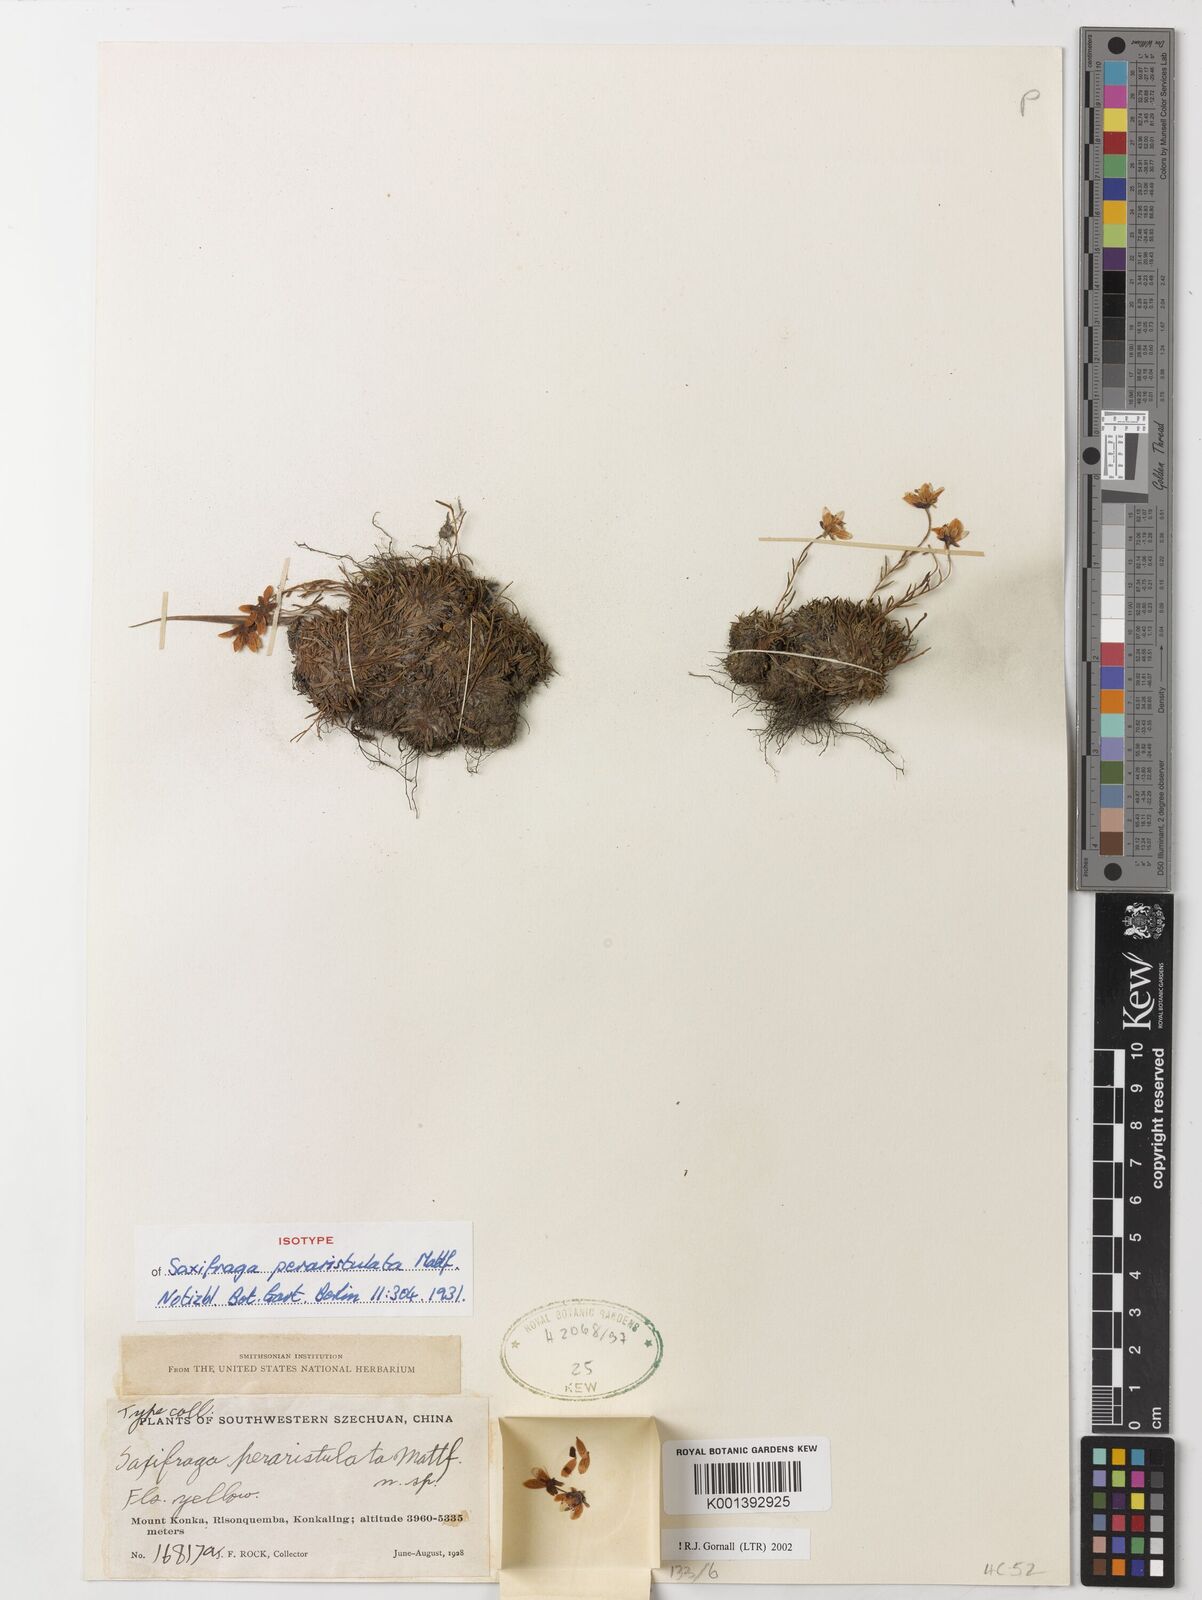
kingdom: Plantae
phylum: Tracheophyta
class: Magnoliopsida
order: Saxifragales
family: Saxifragaceae
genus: Saxifraga
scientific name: Saxifraga peraristulata
